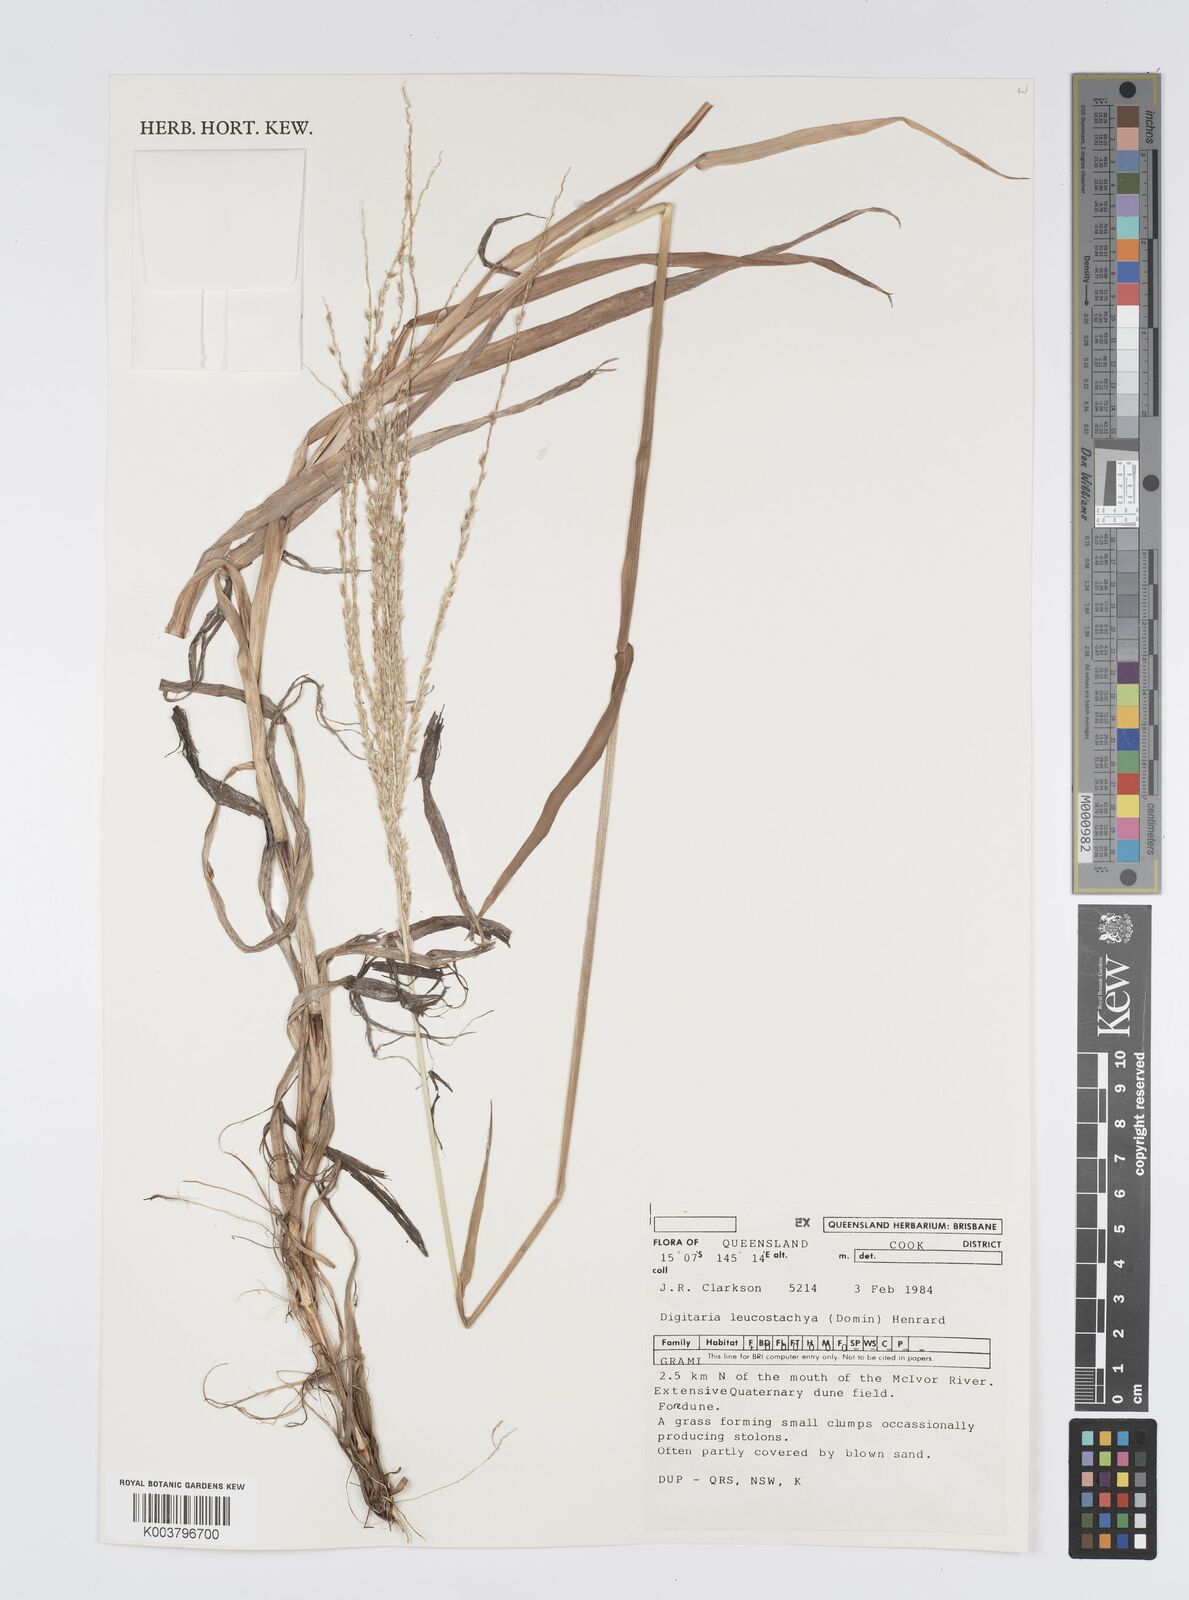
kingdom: Plantae
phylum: Tracheophyta
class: Liliopsida
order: Poales
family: Poaceae
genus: Digitaria
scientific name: Digitaria leucostachya
